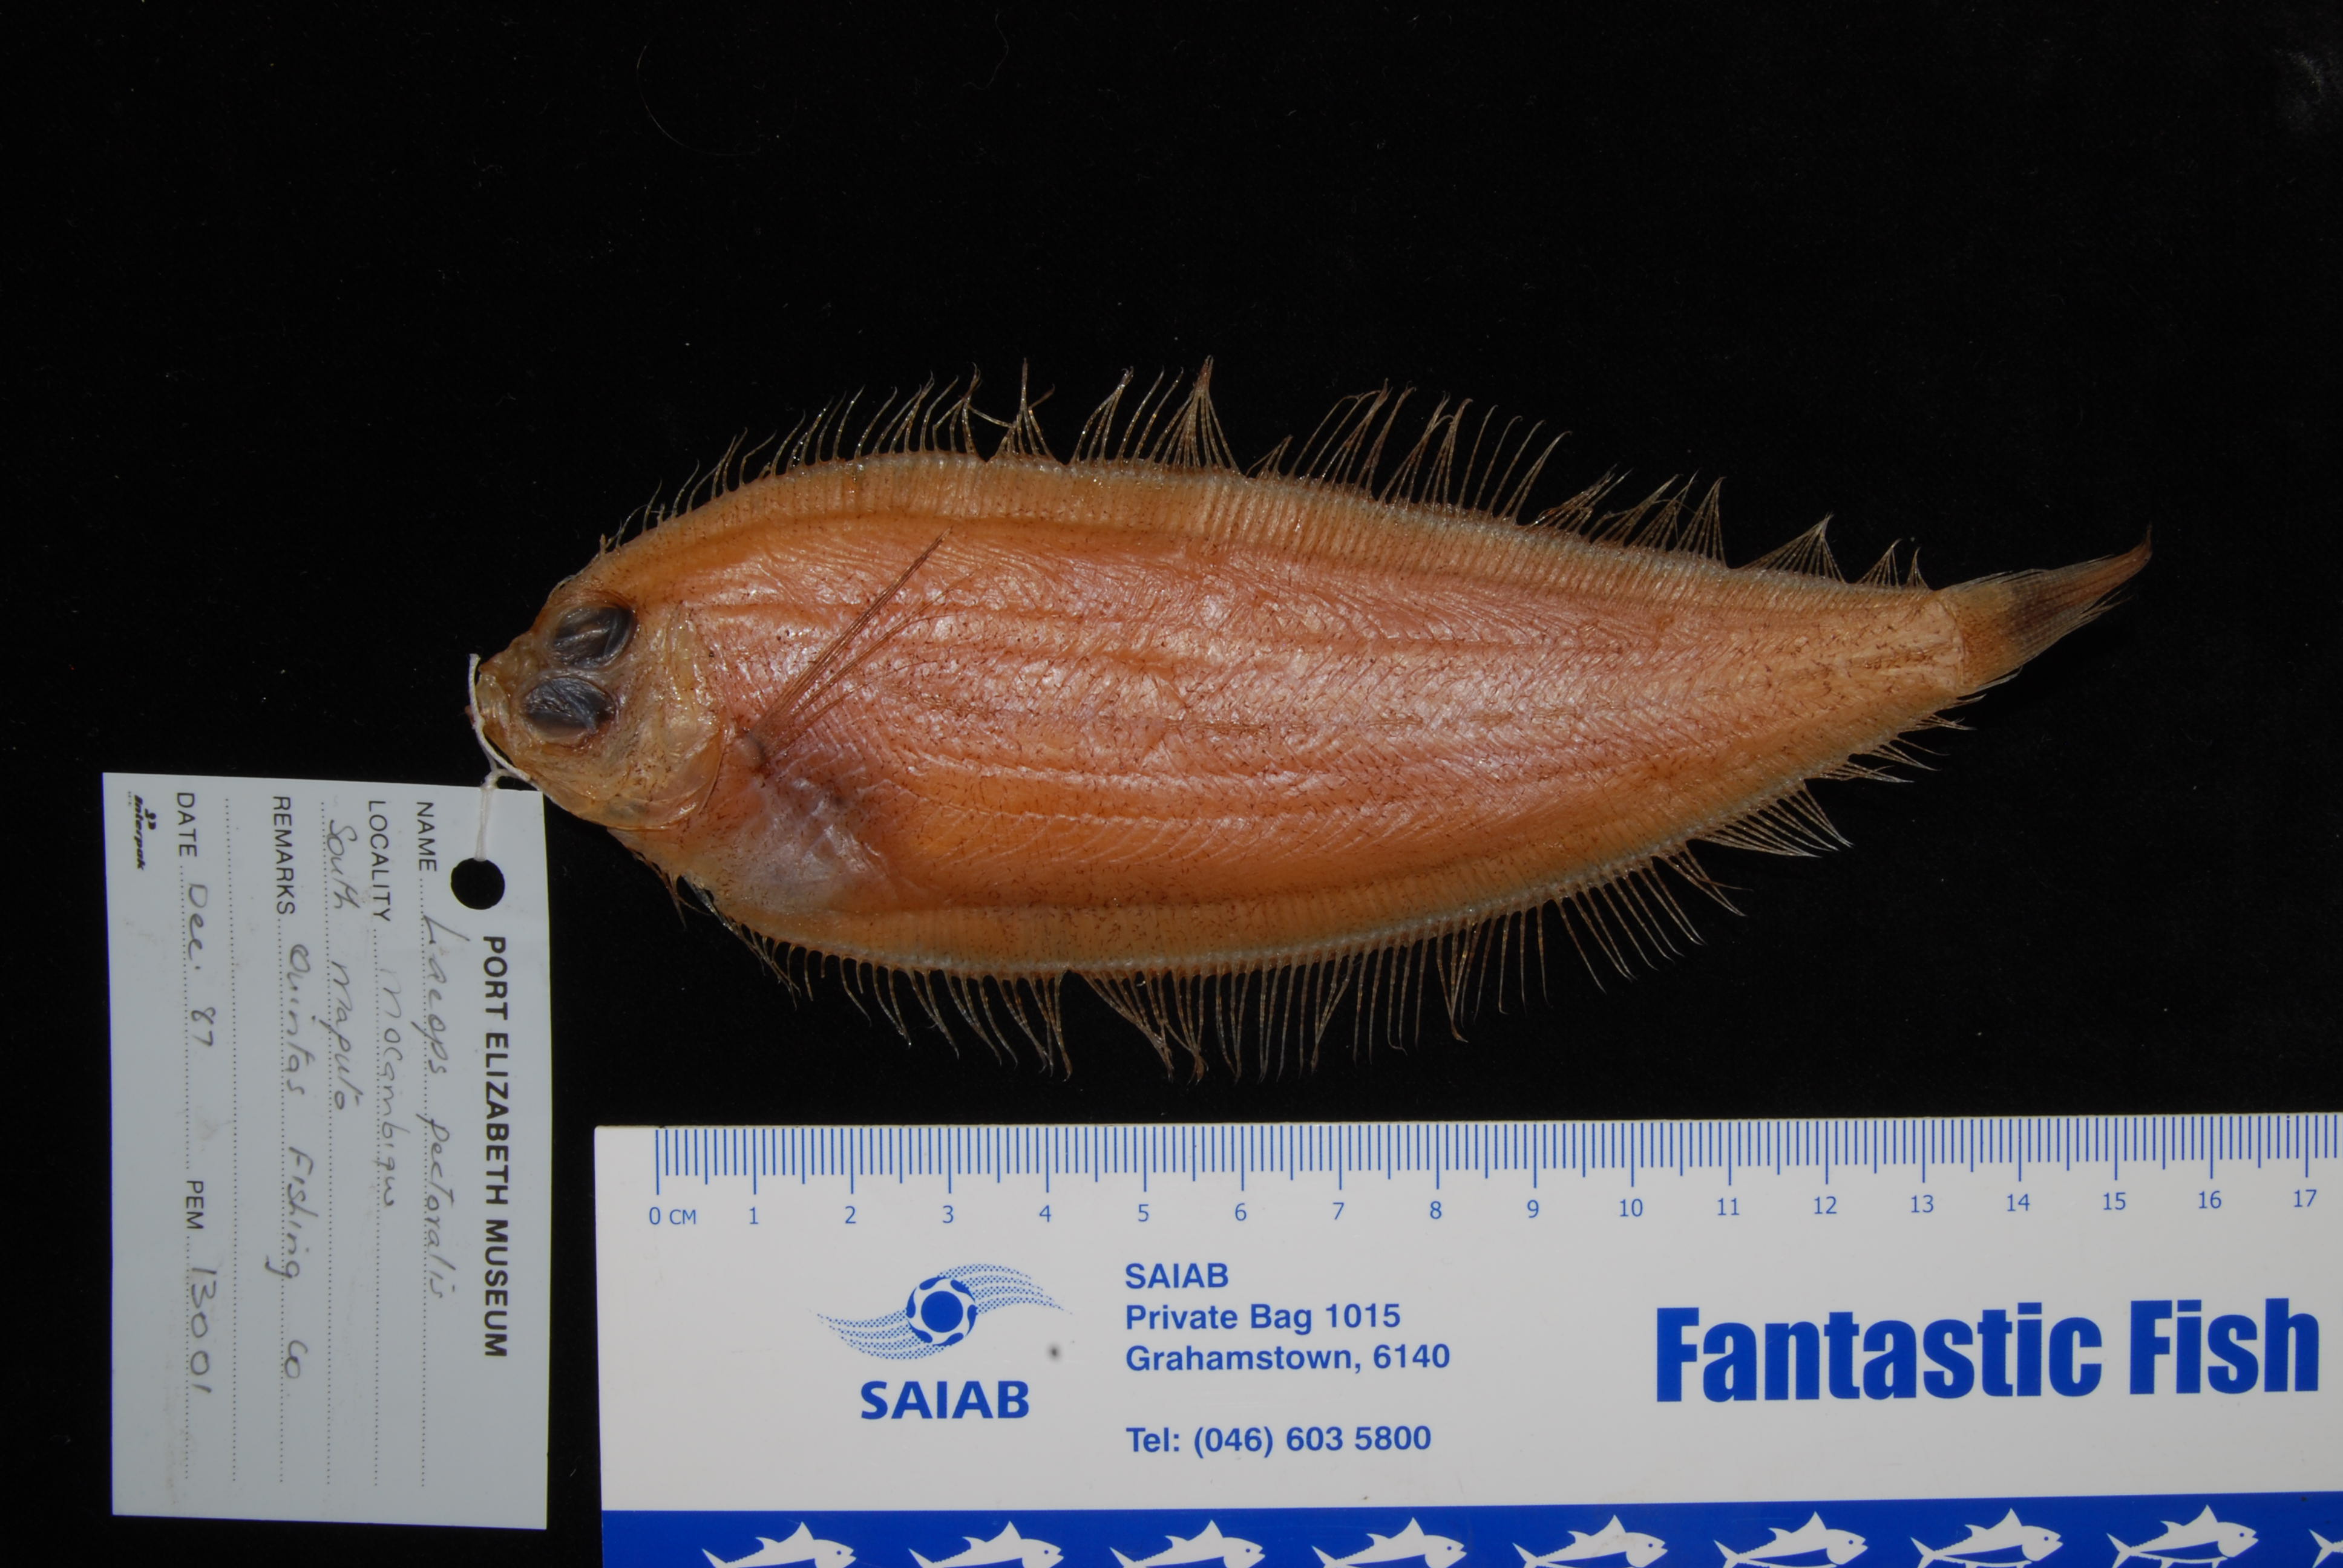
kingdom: Animalia
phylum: Chordata
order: Pleuronectiformes
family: Bothidae
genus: Laeops
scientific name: Laeops pectoralis
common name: Longarm flounder
